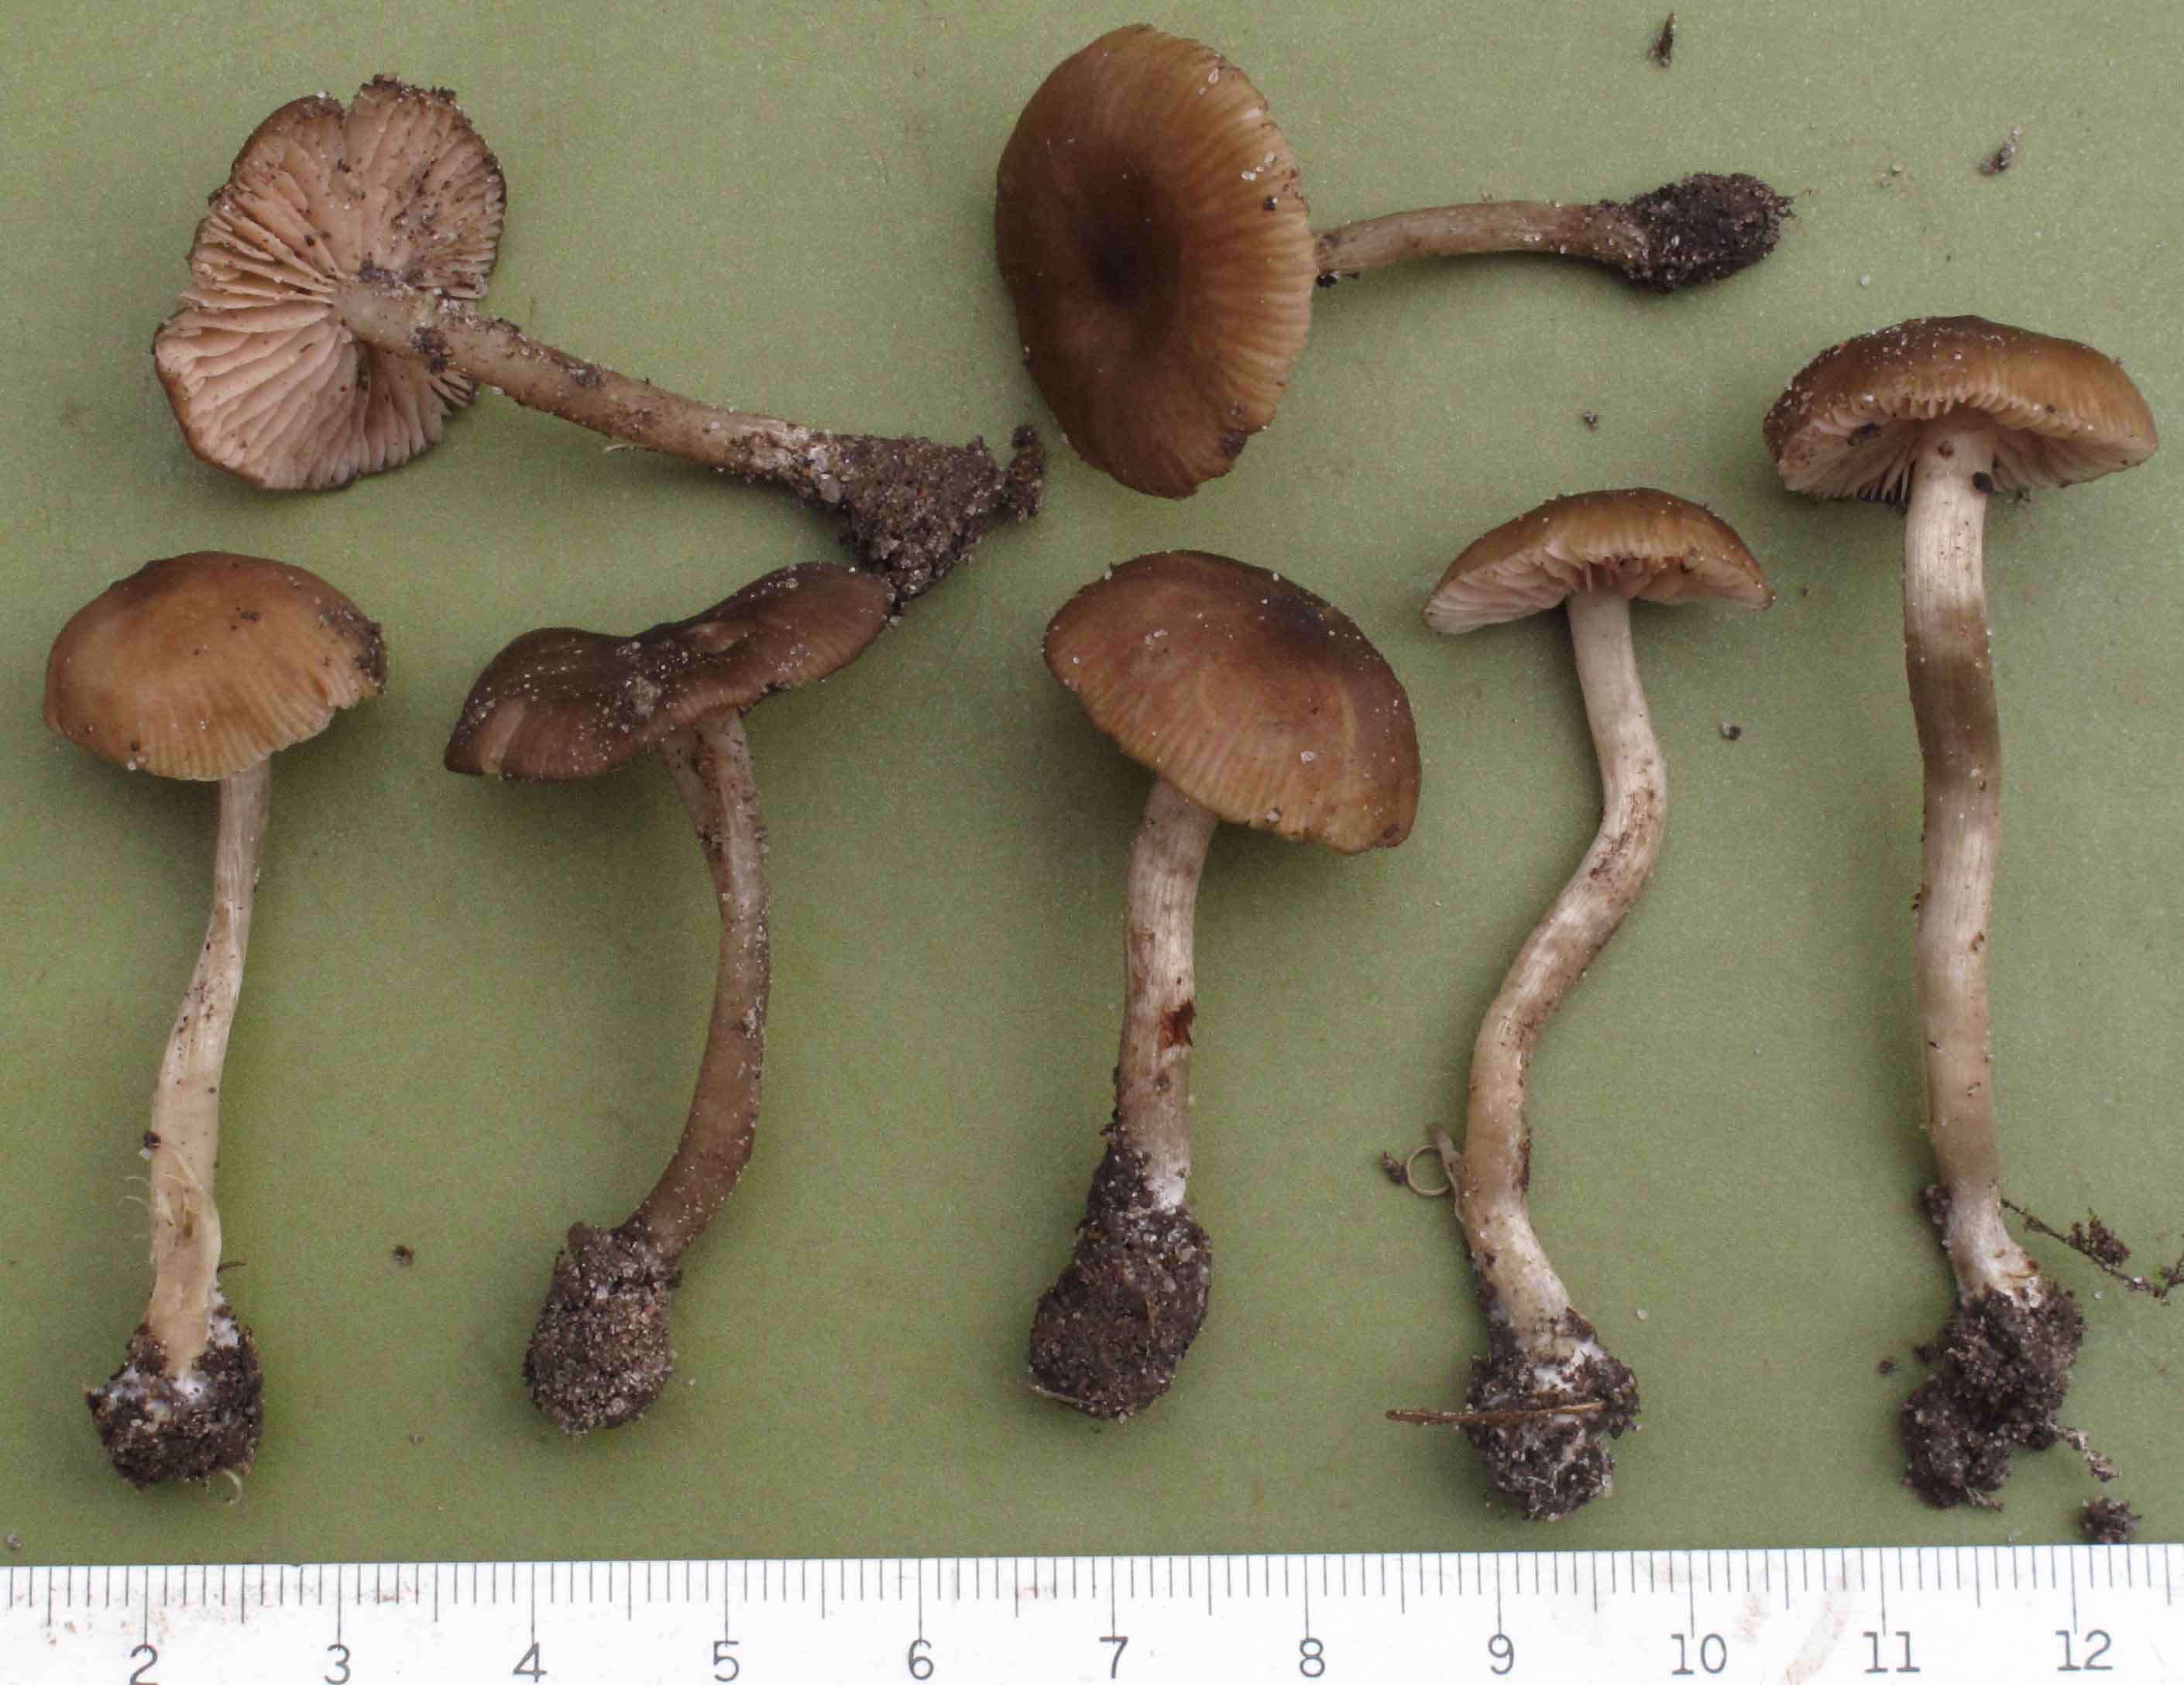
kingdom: Fungi
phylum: Basidiomycota
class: Agaricomycetes
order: Agaricales
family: Entolomataceae
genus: Entoloma
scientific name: Entoloma sordidulum
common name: smudsig rødblad
